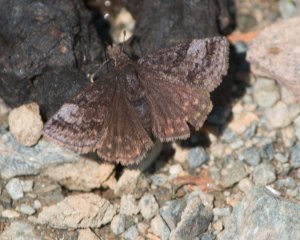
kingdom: Animalia
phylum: Arthropoda
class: Insecta
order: Lepidoptera
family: Hesperiidae
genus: Erynnis
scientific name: Erynnis icelus
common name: Dreamy Duskywing
